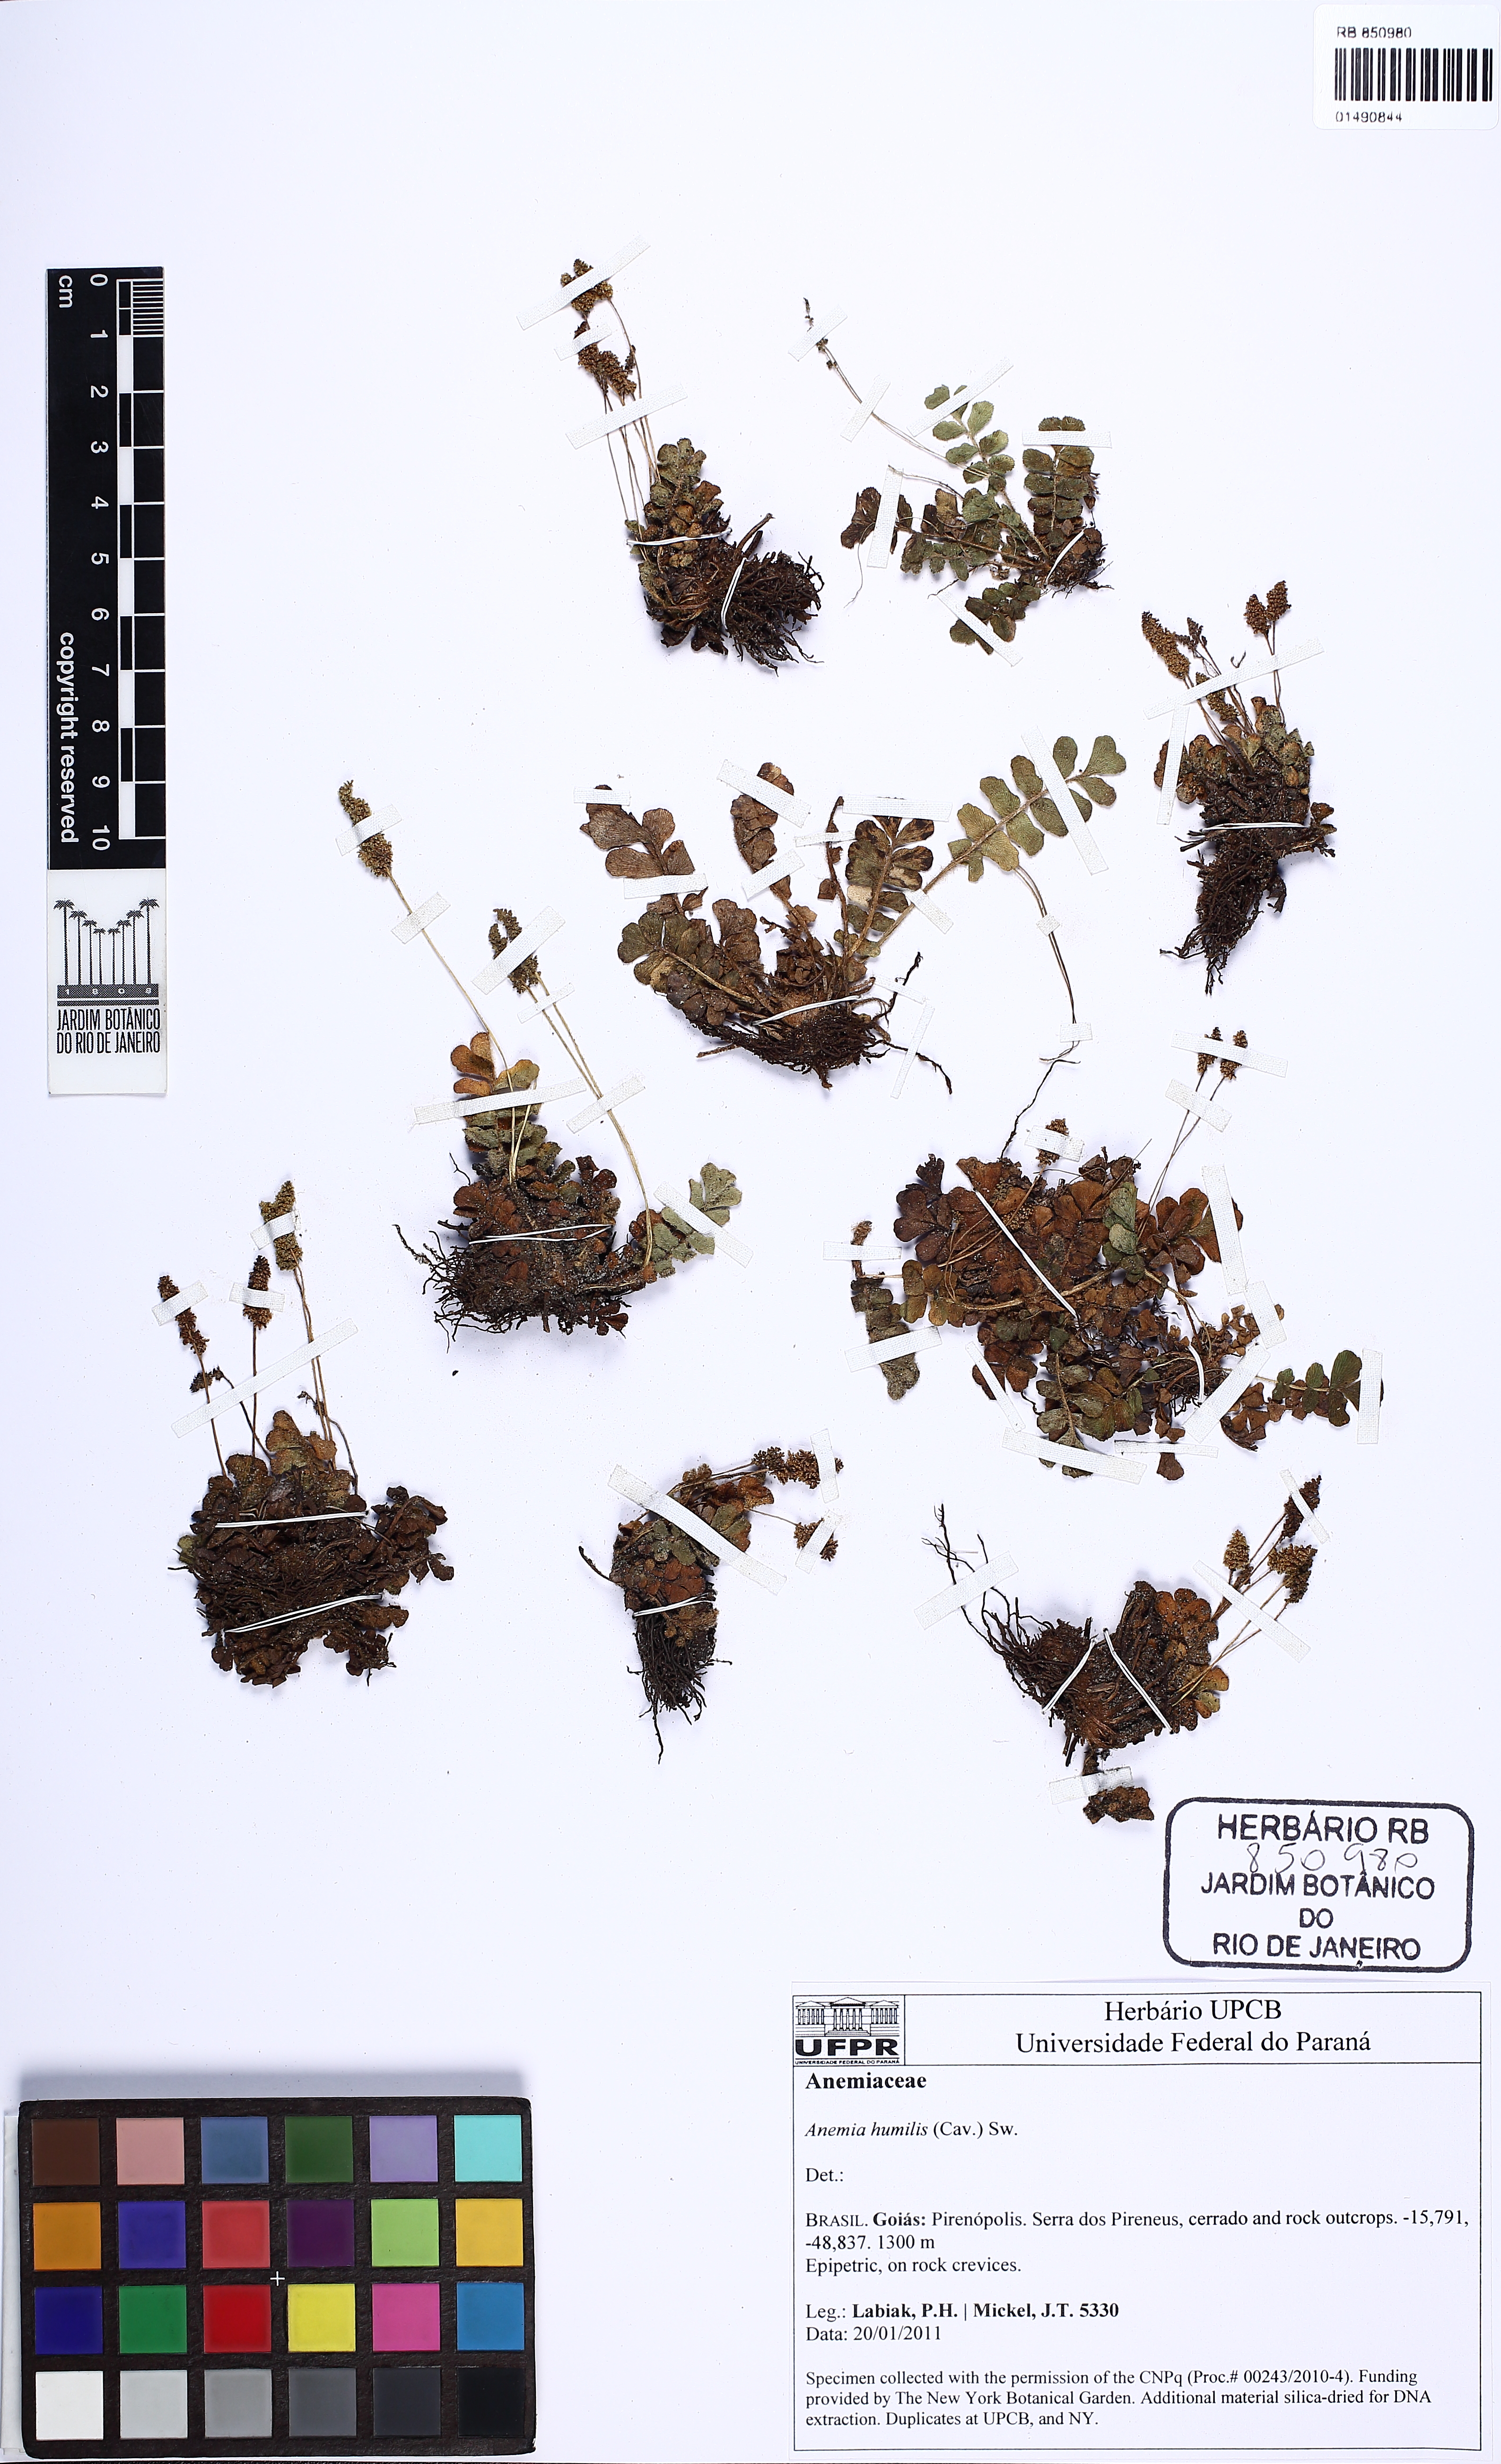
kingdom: Plantae
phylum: Tracheophyta
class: Polypodiopsida
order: Schizaeales
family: Anemiaceae
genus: Anemia
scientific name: Anemia humilis
